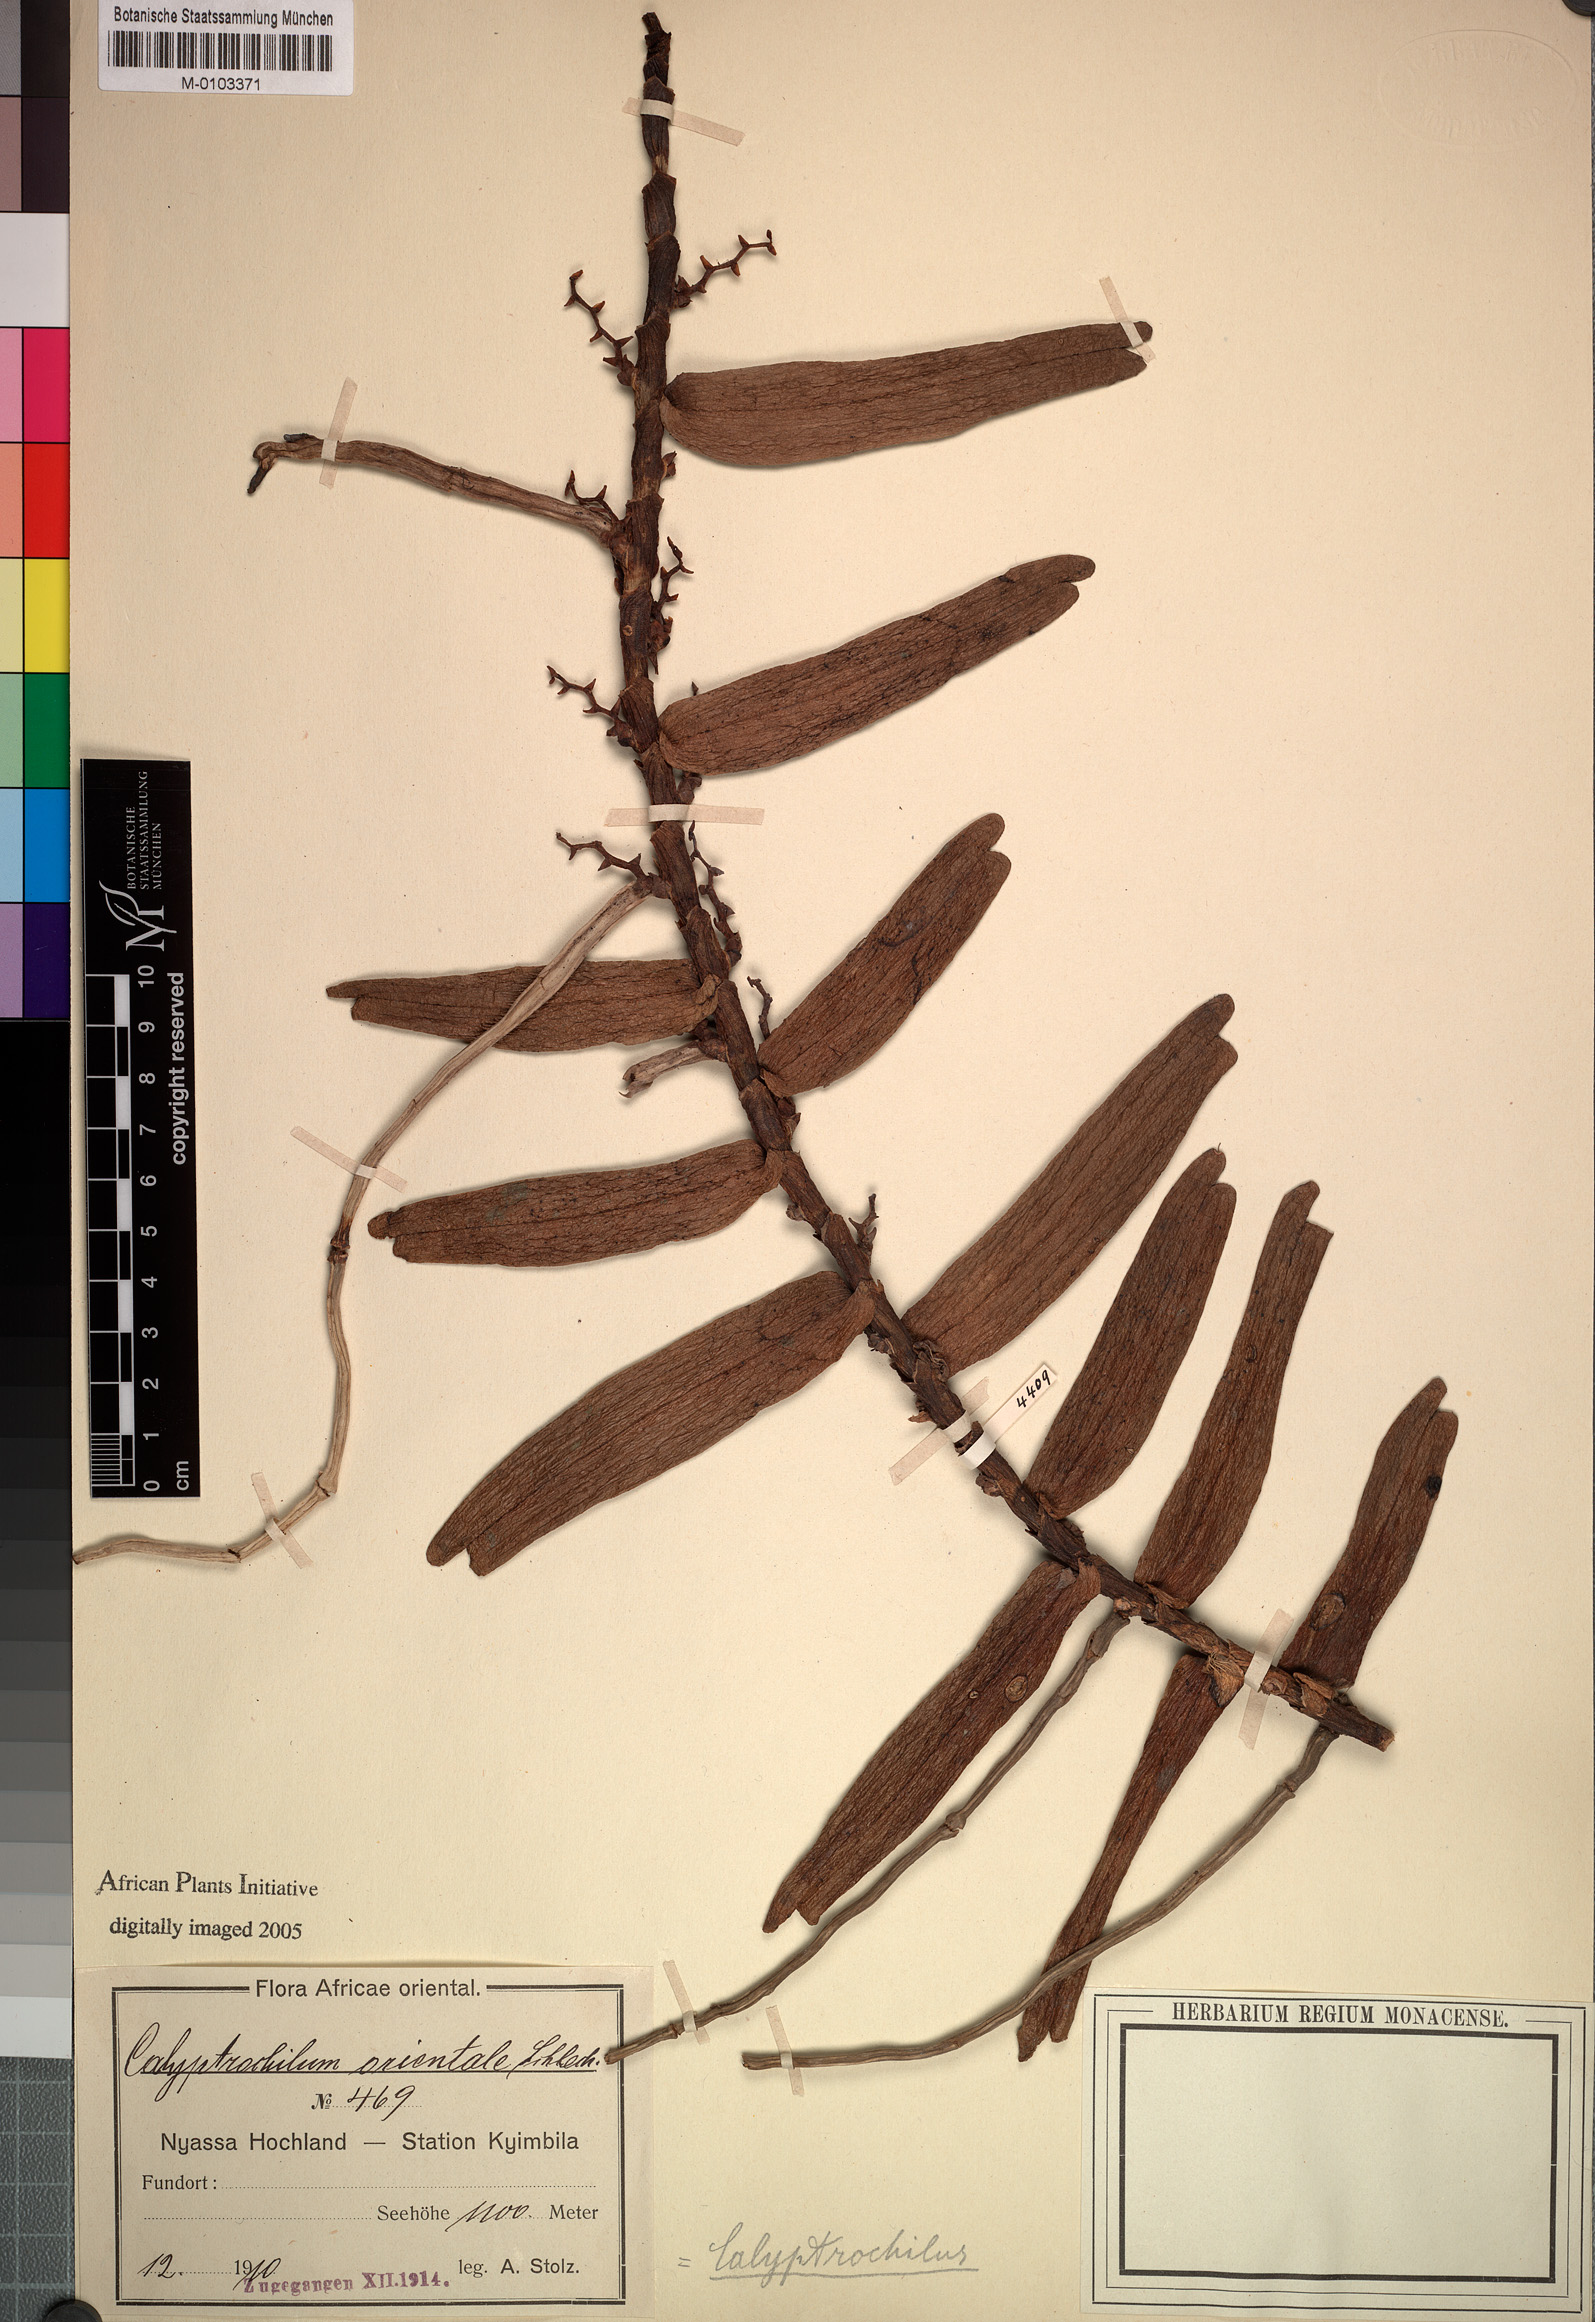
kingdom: Plantae
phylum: Tracheophyta
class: Liliopsida
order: Asparagales
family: Orchidaceae
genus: Calyptrochilum
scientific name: Calyptrochilum christyanum
